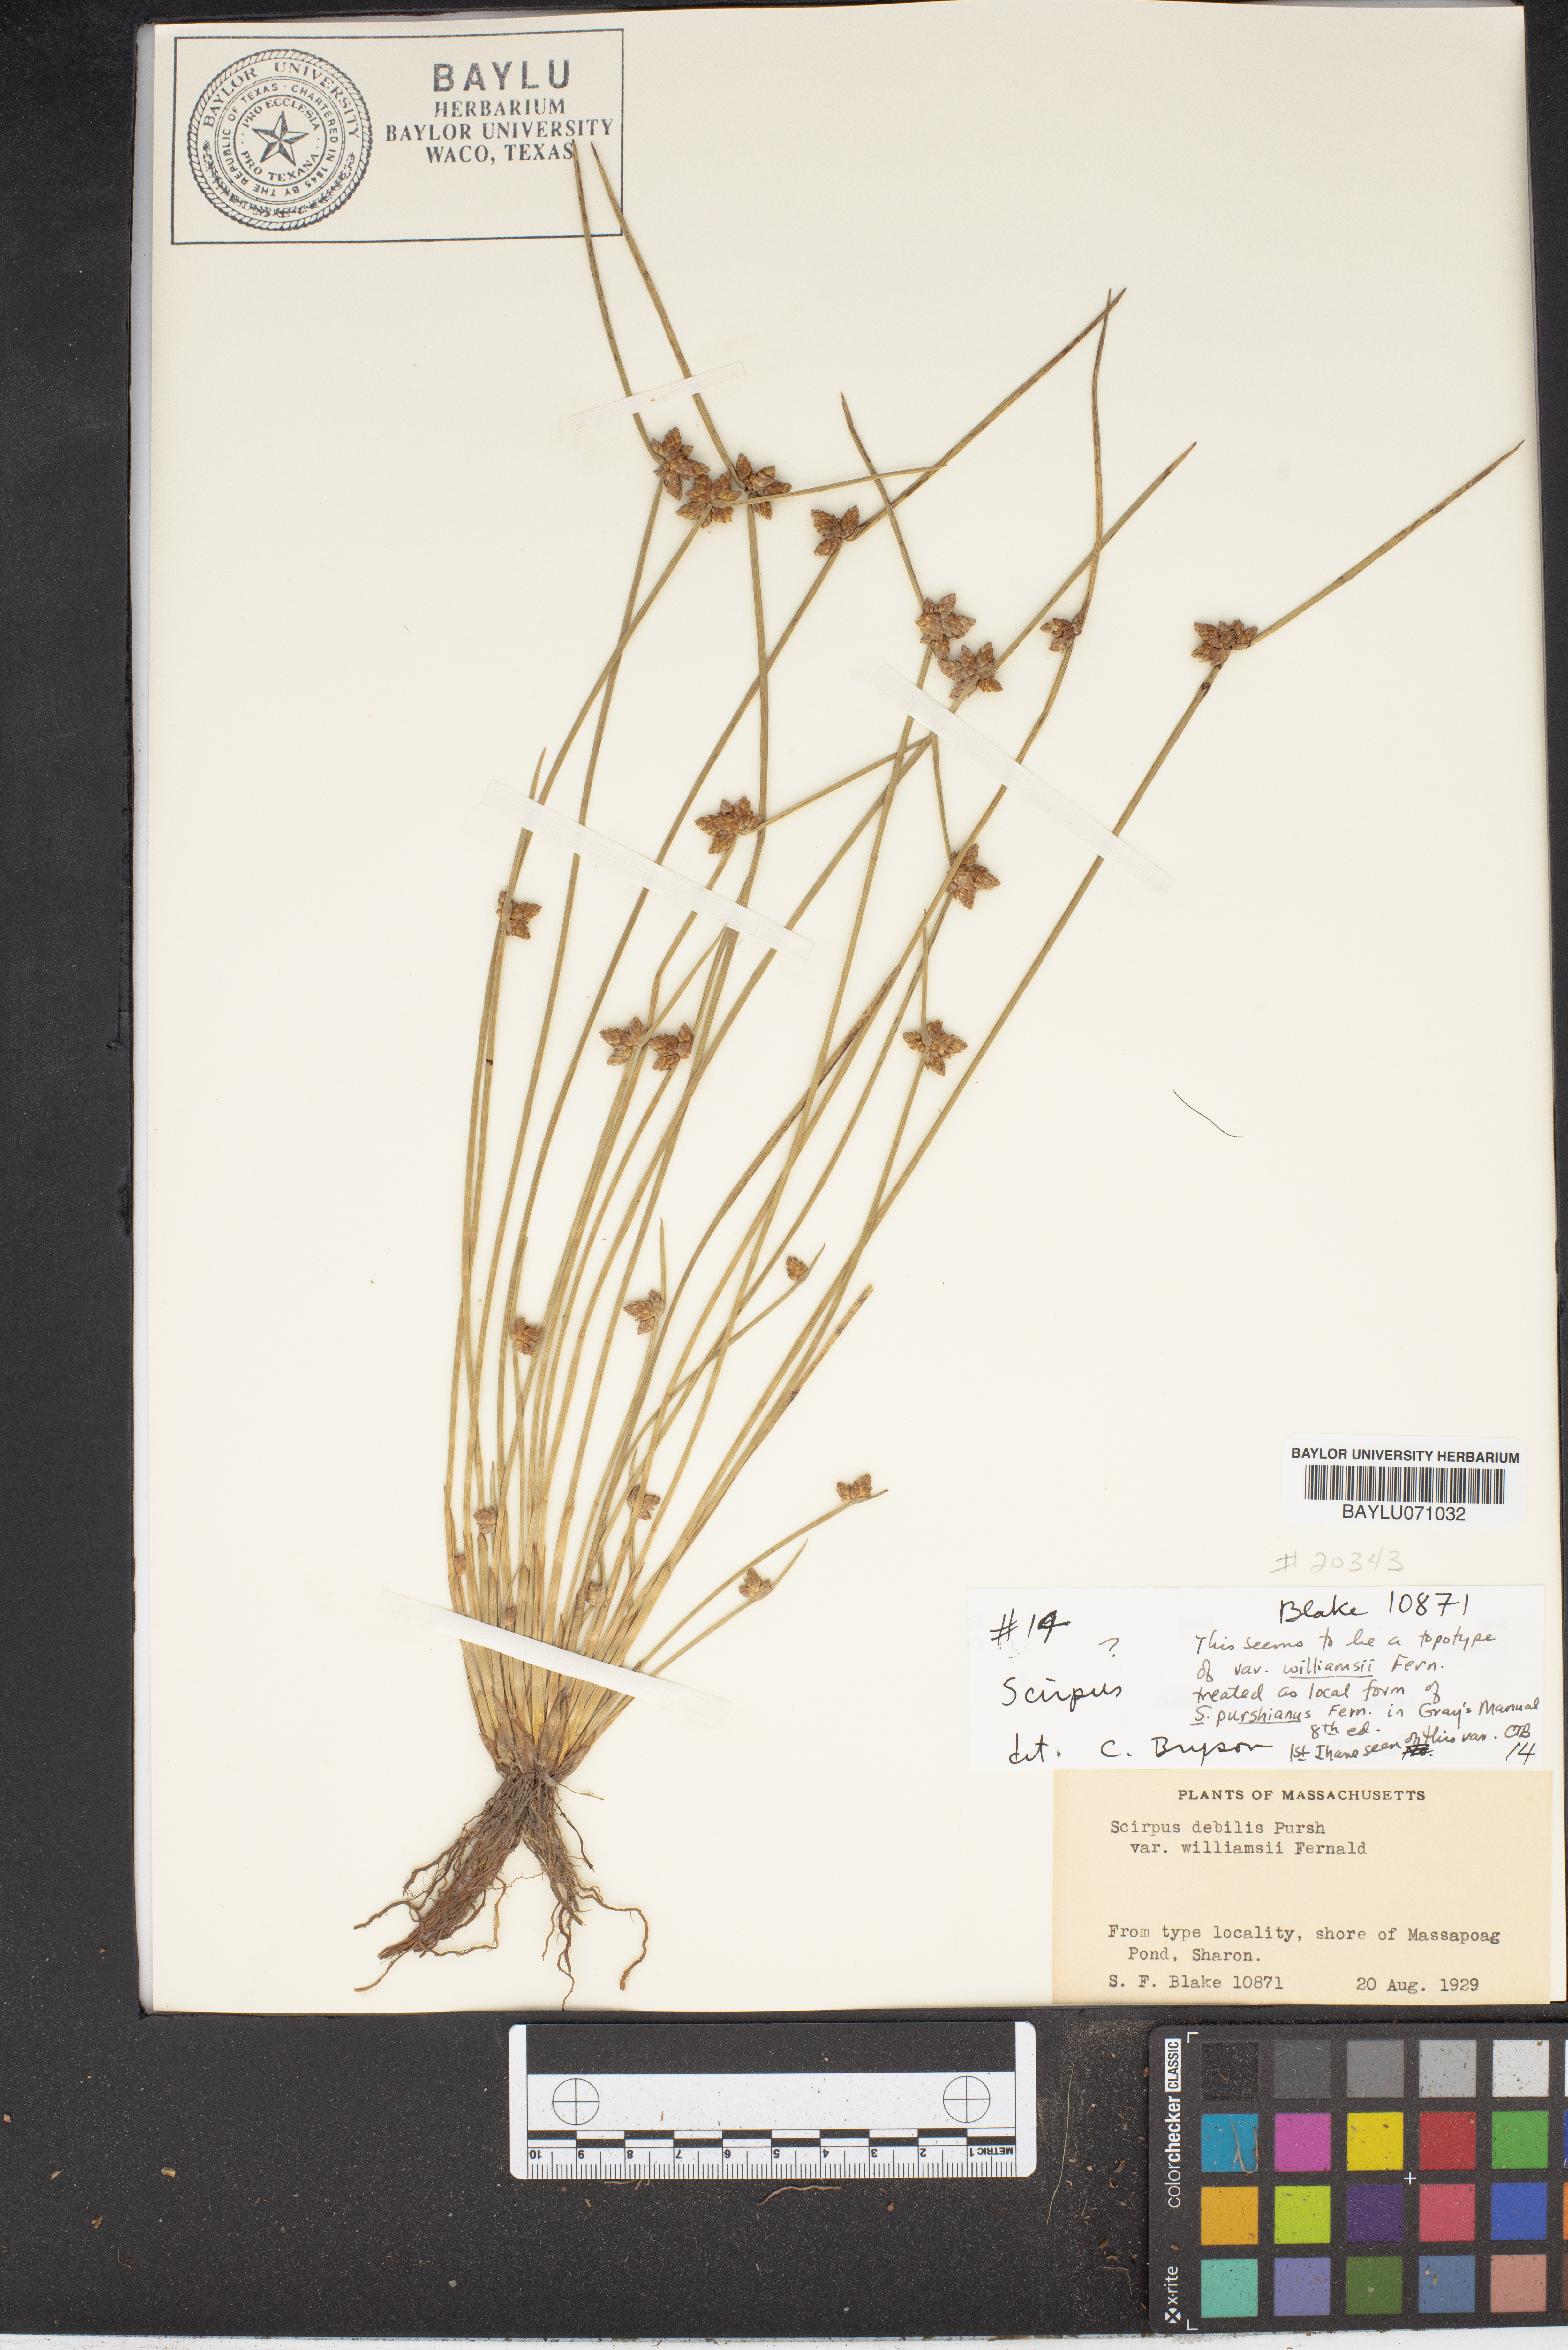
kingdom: Plantae
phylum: Tracheophyta
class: Liliopsida
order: Poales
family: Cyperaceae
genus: Schoenoplectiella
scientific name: Schoenoplectiella purshiana
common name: Weak-stalked bulrush
